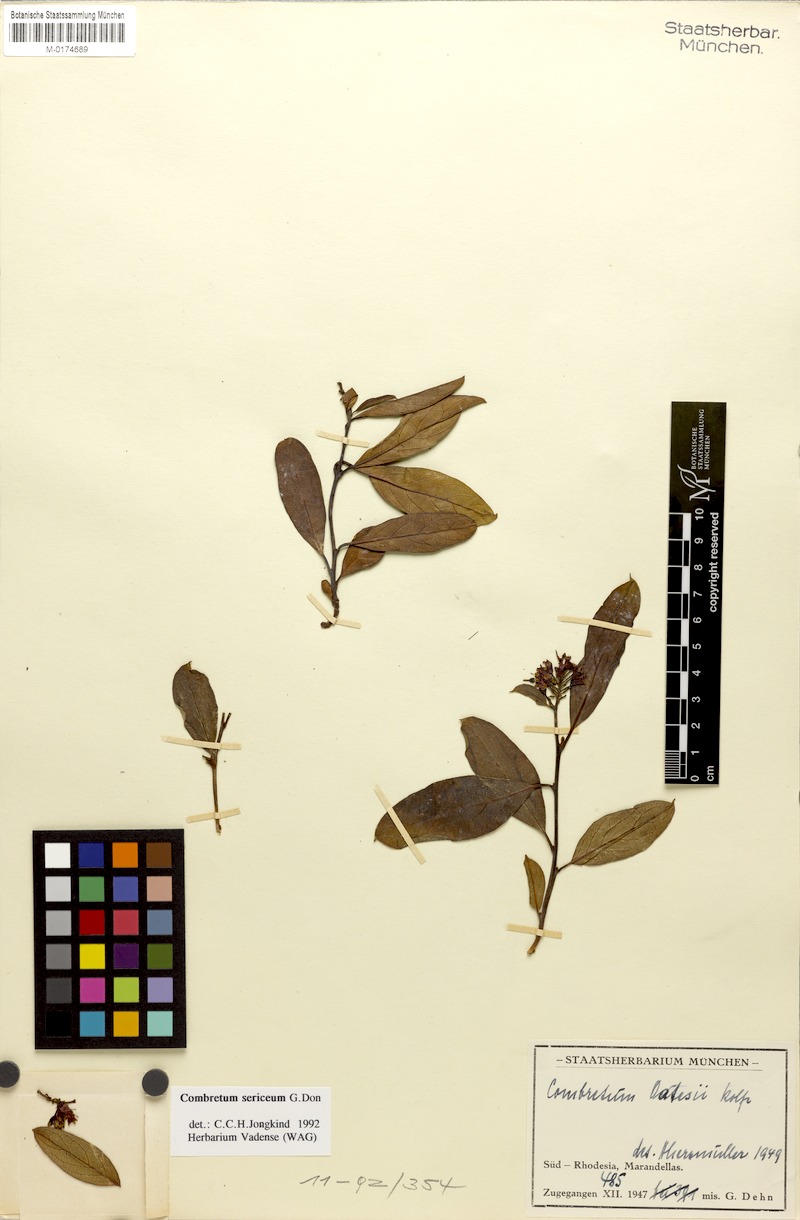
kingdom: Plantae
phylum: Tracheophyta
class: Magnoliopsida
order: Myrtales
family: Combretaceae
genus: Combretum
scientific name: Combretum sericeum
